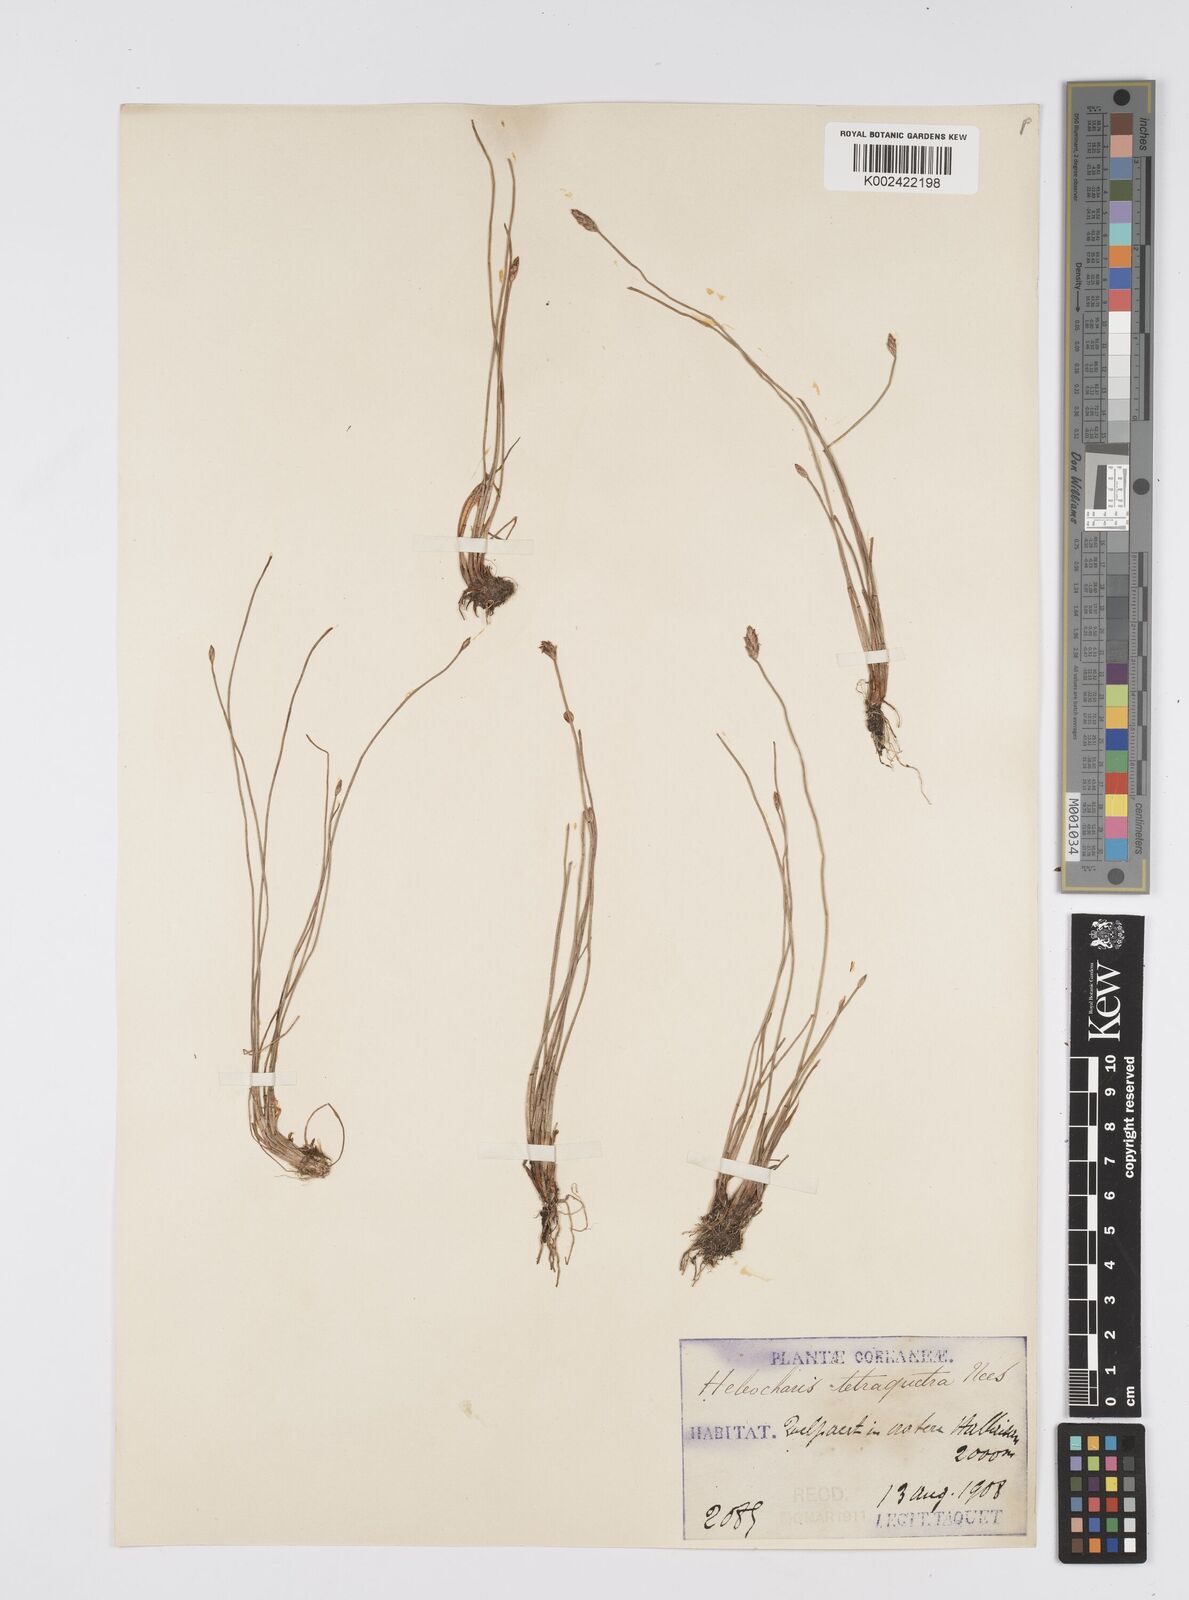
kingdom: Plantae
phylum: Tracheophyta
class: Liliopsida
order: Poales
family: Cyperaceae
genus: Eleocharis
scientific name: Eleocharis tetraquetra
